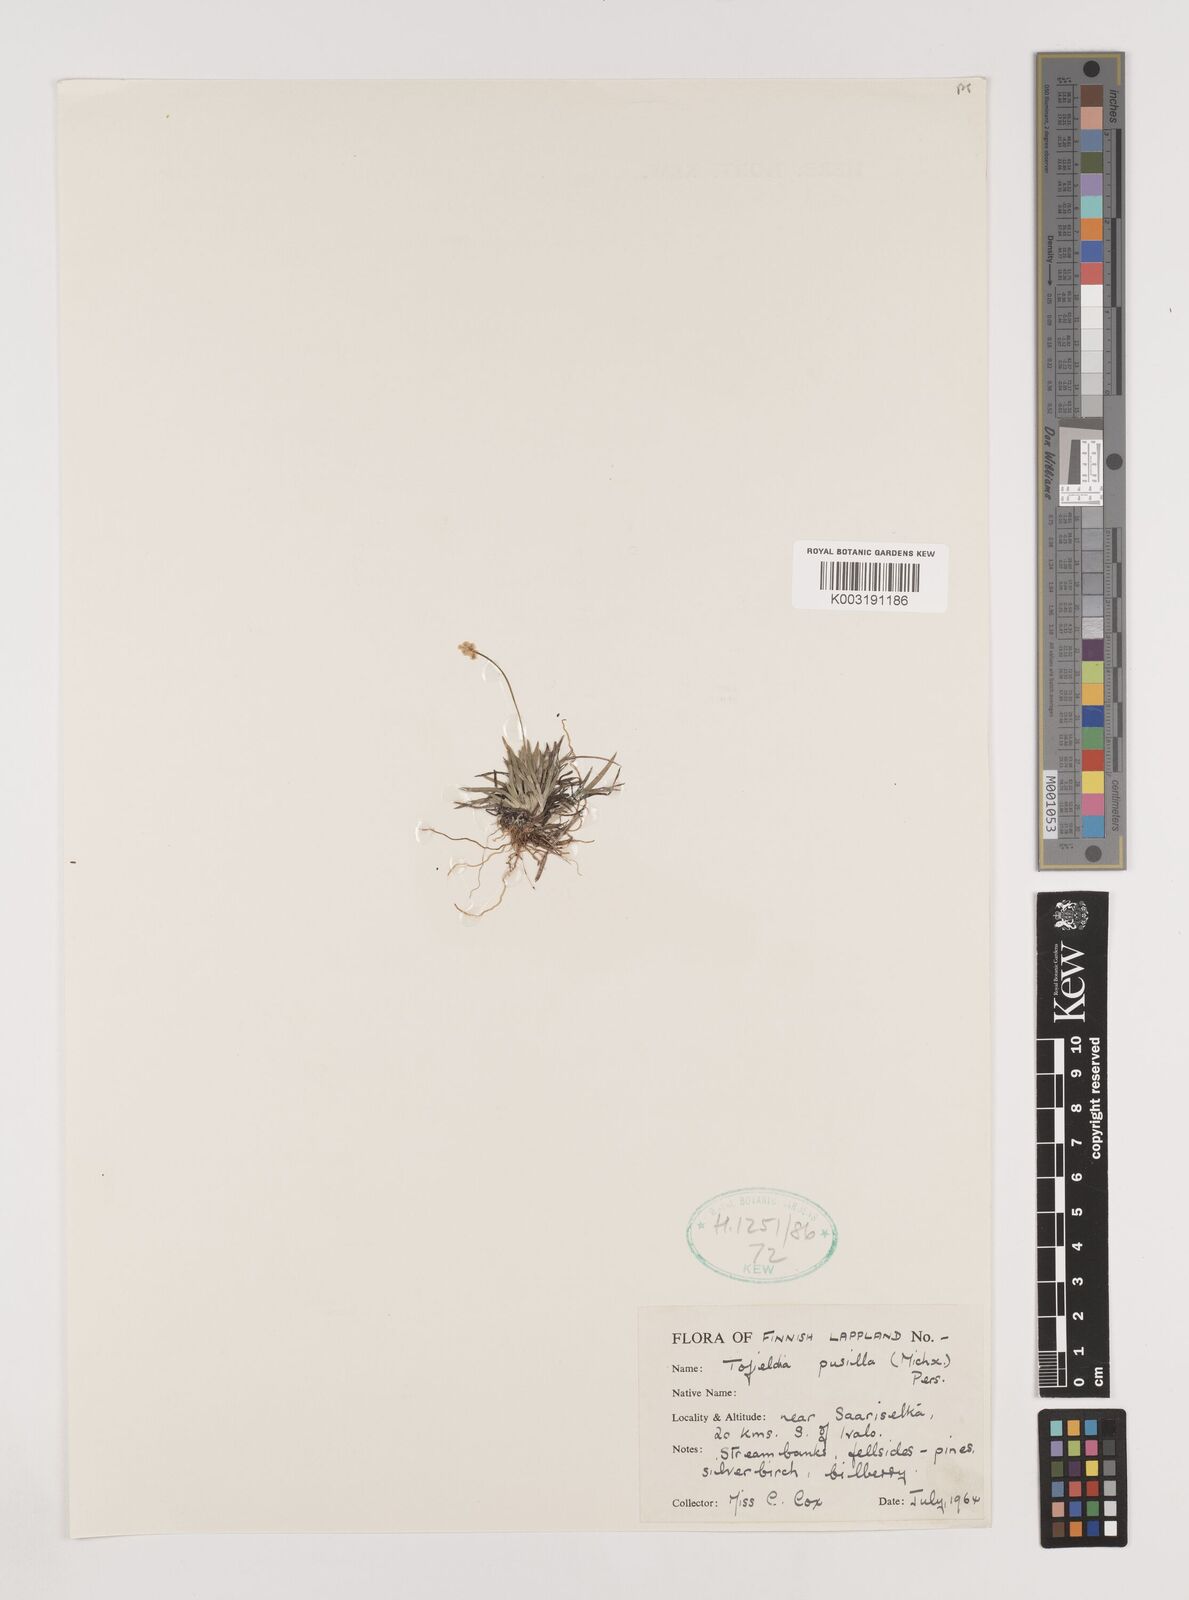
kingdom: Plantae
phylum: Tracheophyta
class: Liliopsida
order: Alismatales
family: Tofieldiaceae
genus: Tofieldia
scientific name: Tofieldia calyculata
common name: German-asphodel
